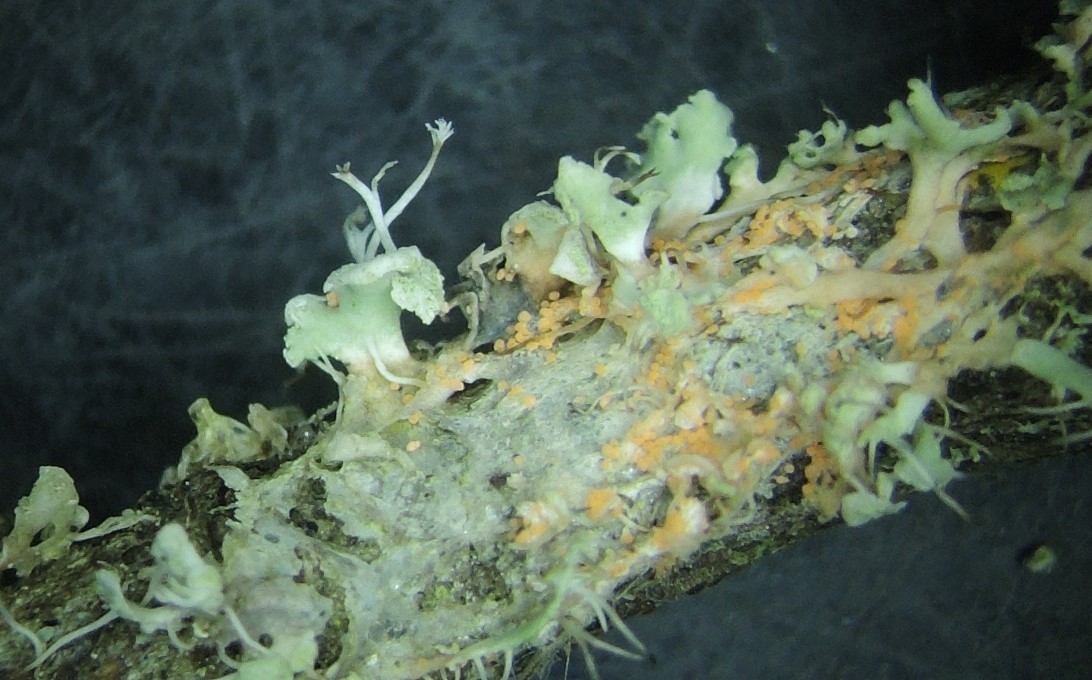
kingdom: Fungi
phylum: Basidiomycota
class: Agaricomycetes
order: Corticiales
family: Corticiaceae
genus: Erythricium
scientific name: Erythricium aurantiacum
